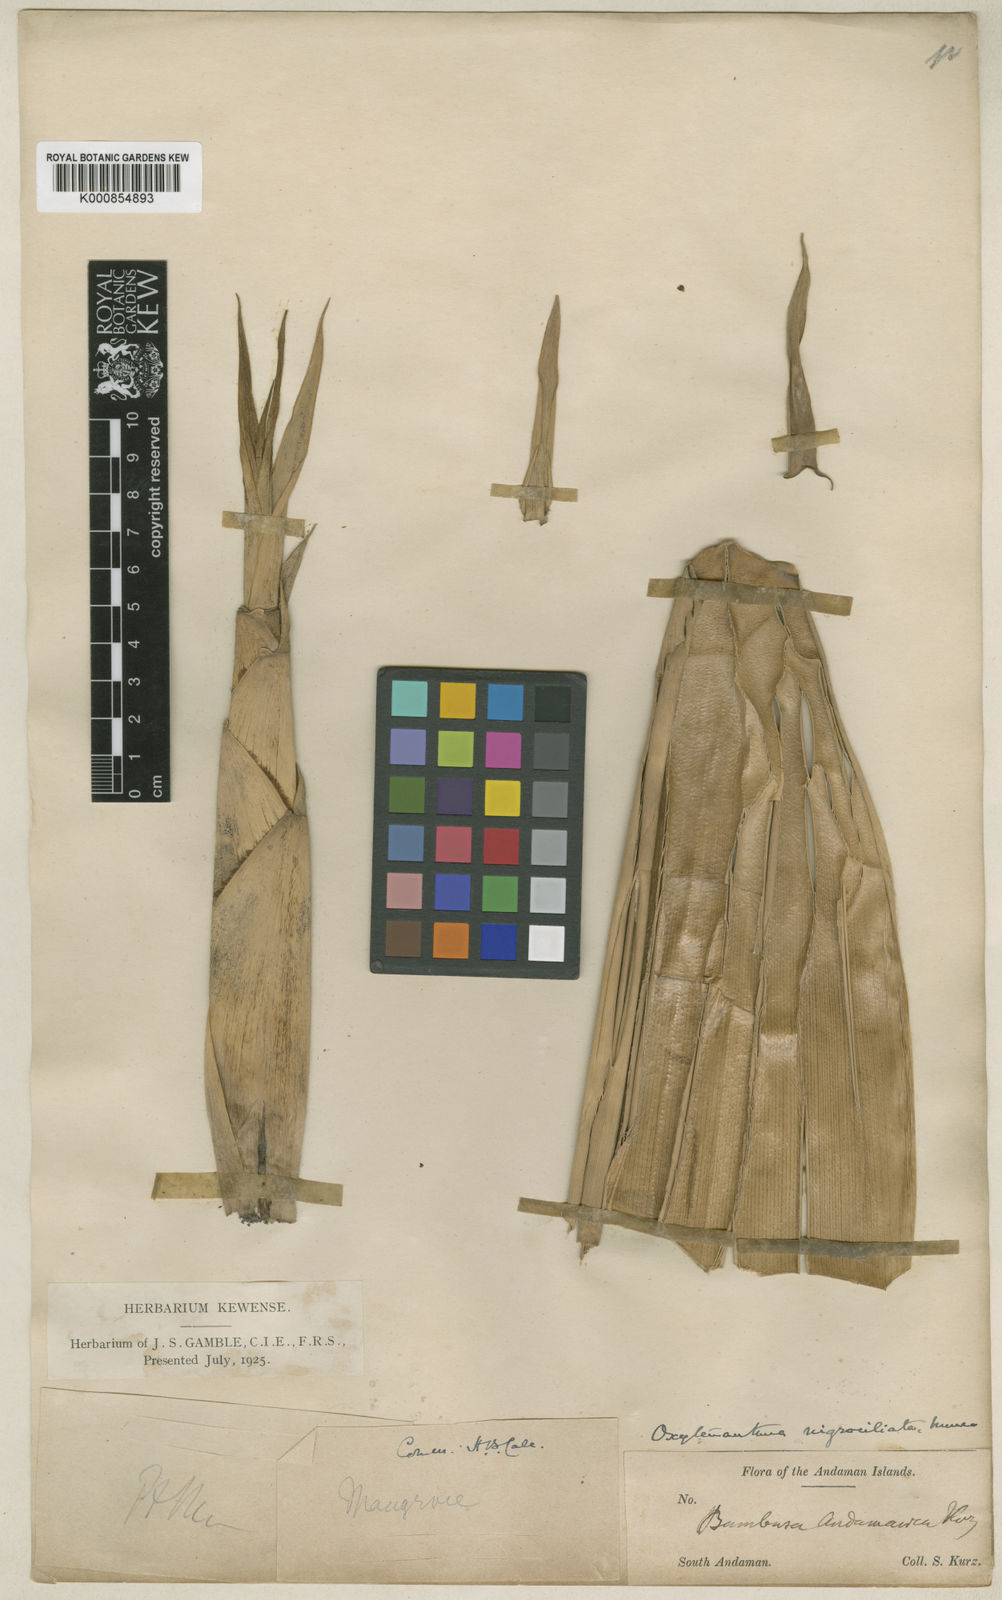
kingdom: Plantae
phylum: Tracheophyta
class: Liliopsida
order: Poales
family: Poaceae
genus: Gigantochloa
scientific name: Gigantochloa nigrociliata
